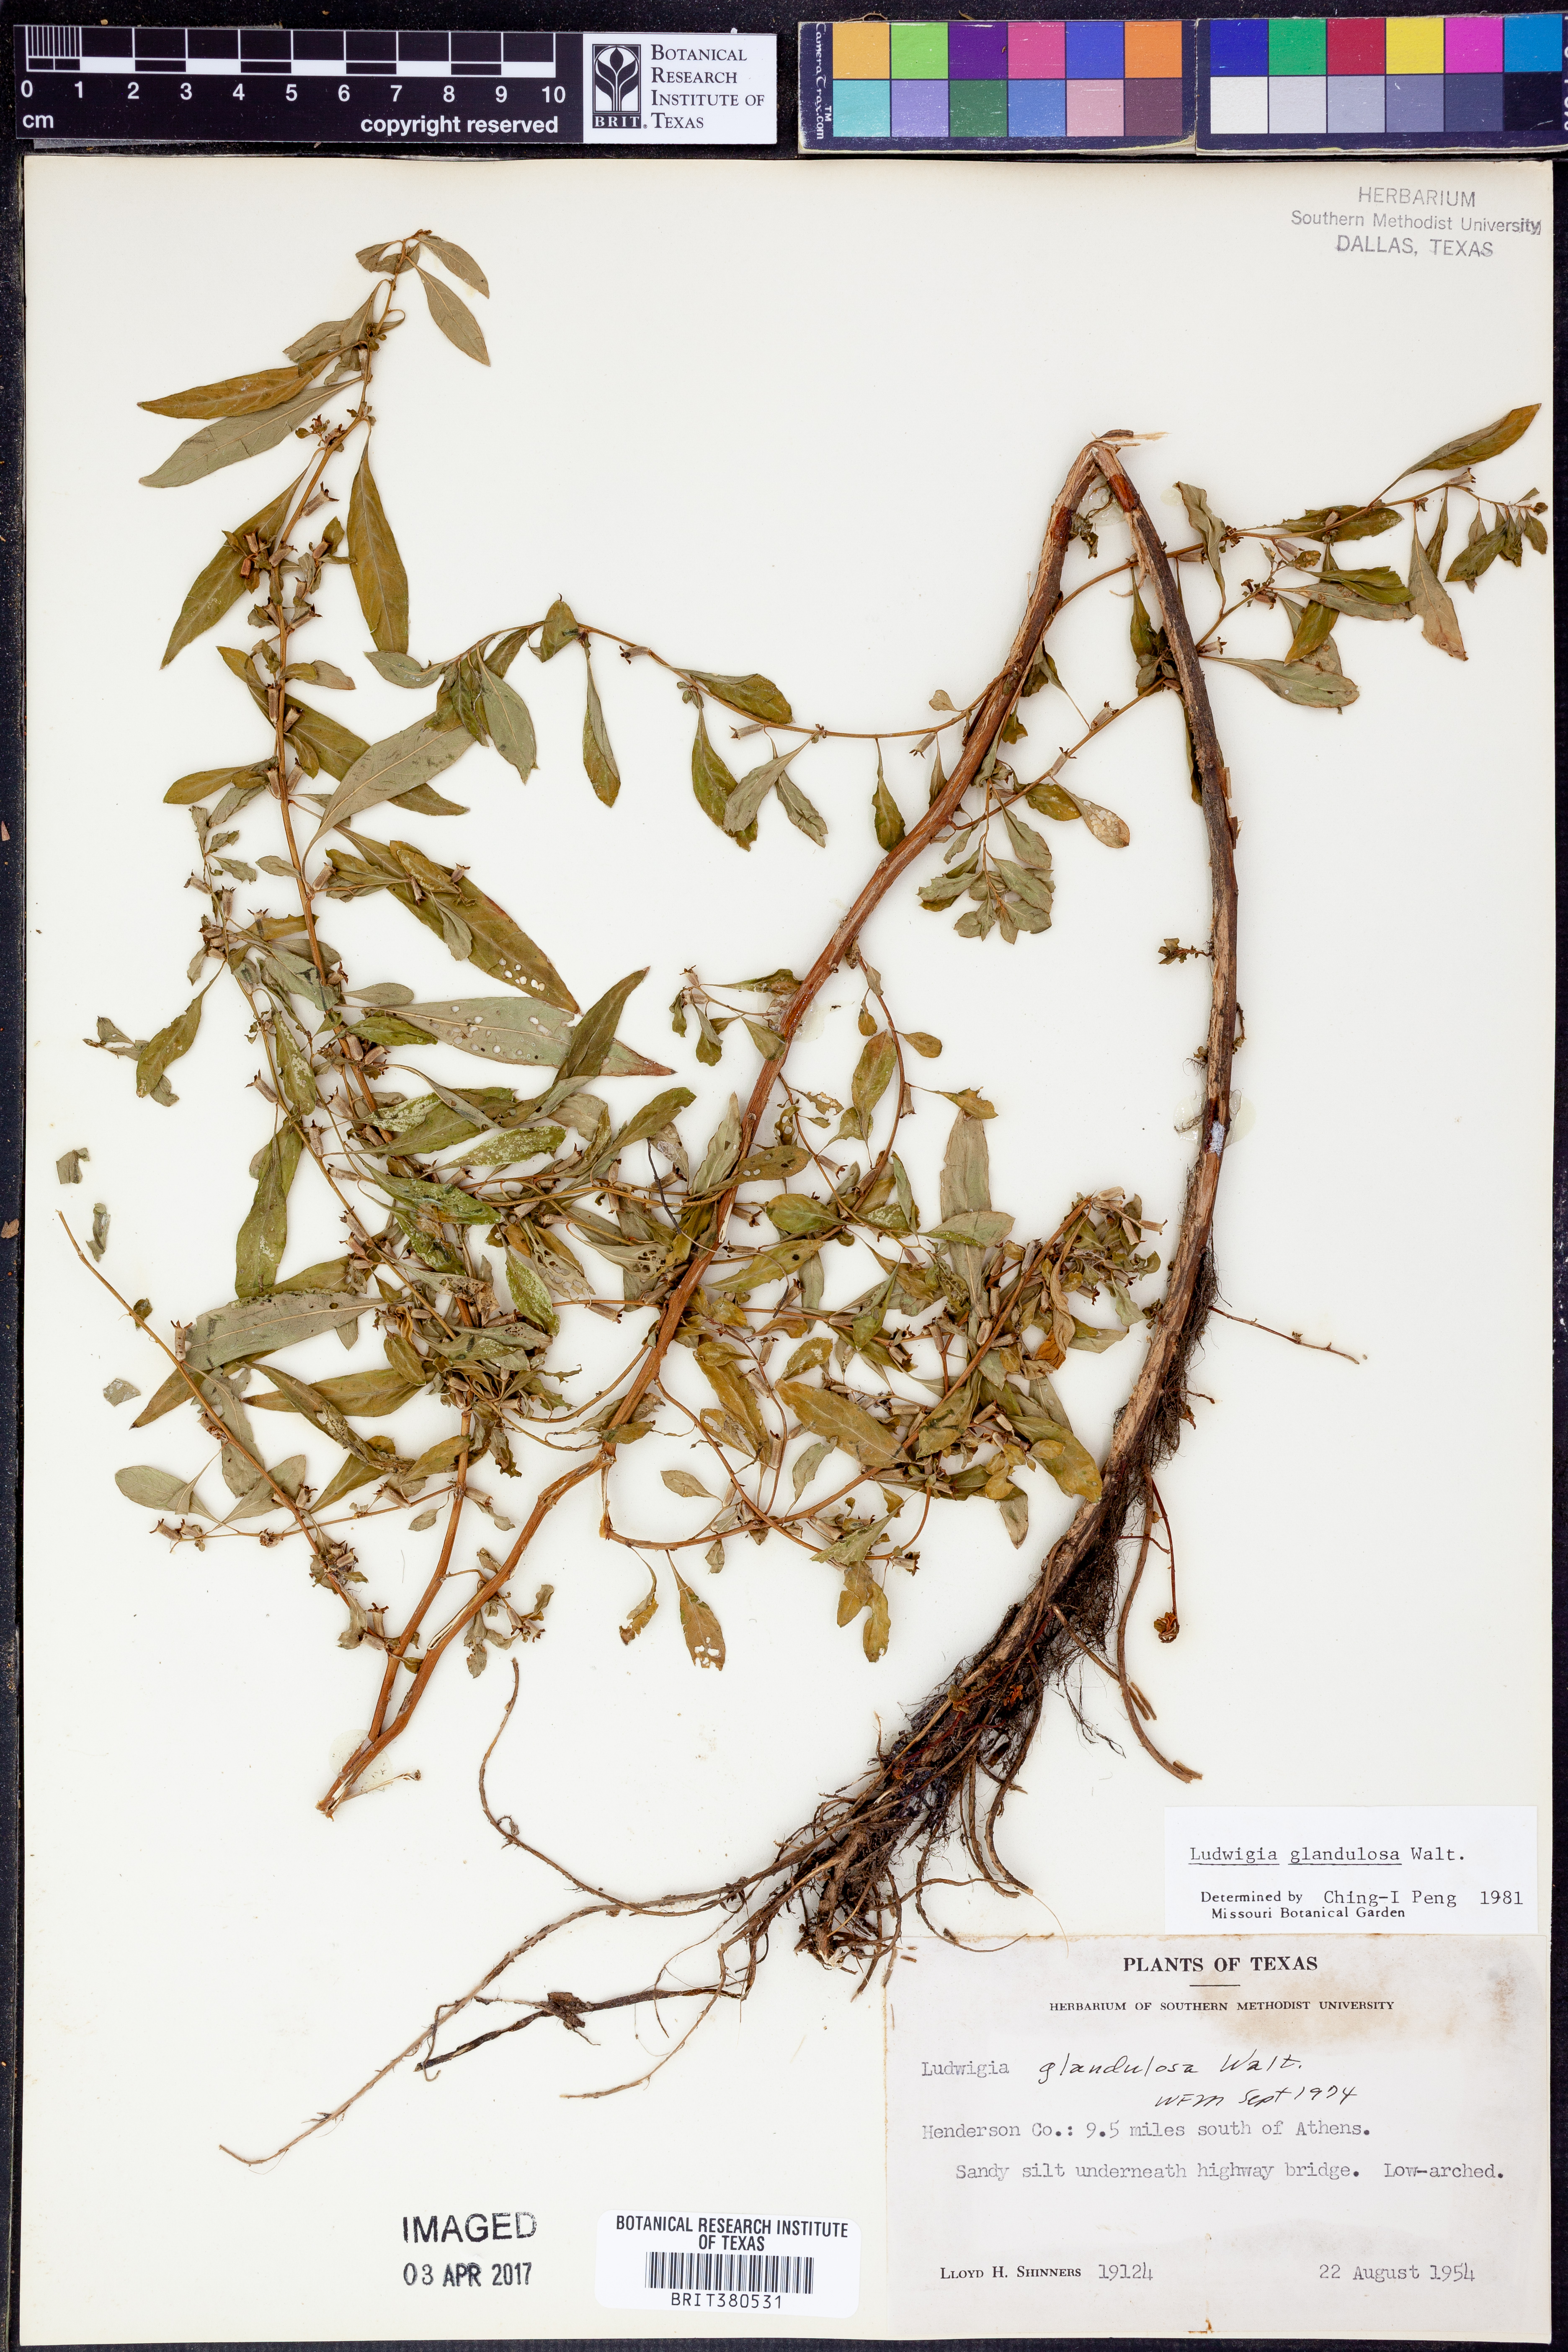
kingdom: Plantae
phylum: Tracheophyta
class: Magnoliopsida
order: Myrtales
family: Onagraceae
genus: Ludwigia
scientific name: Ludwigia glandulosa
